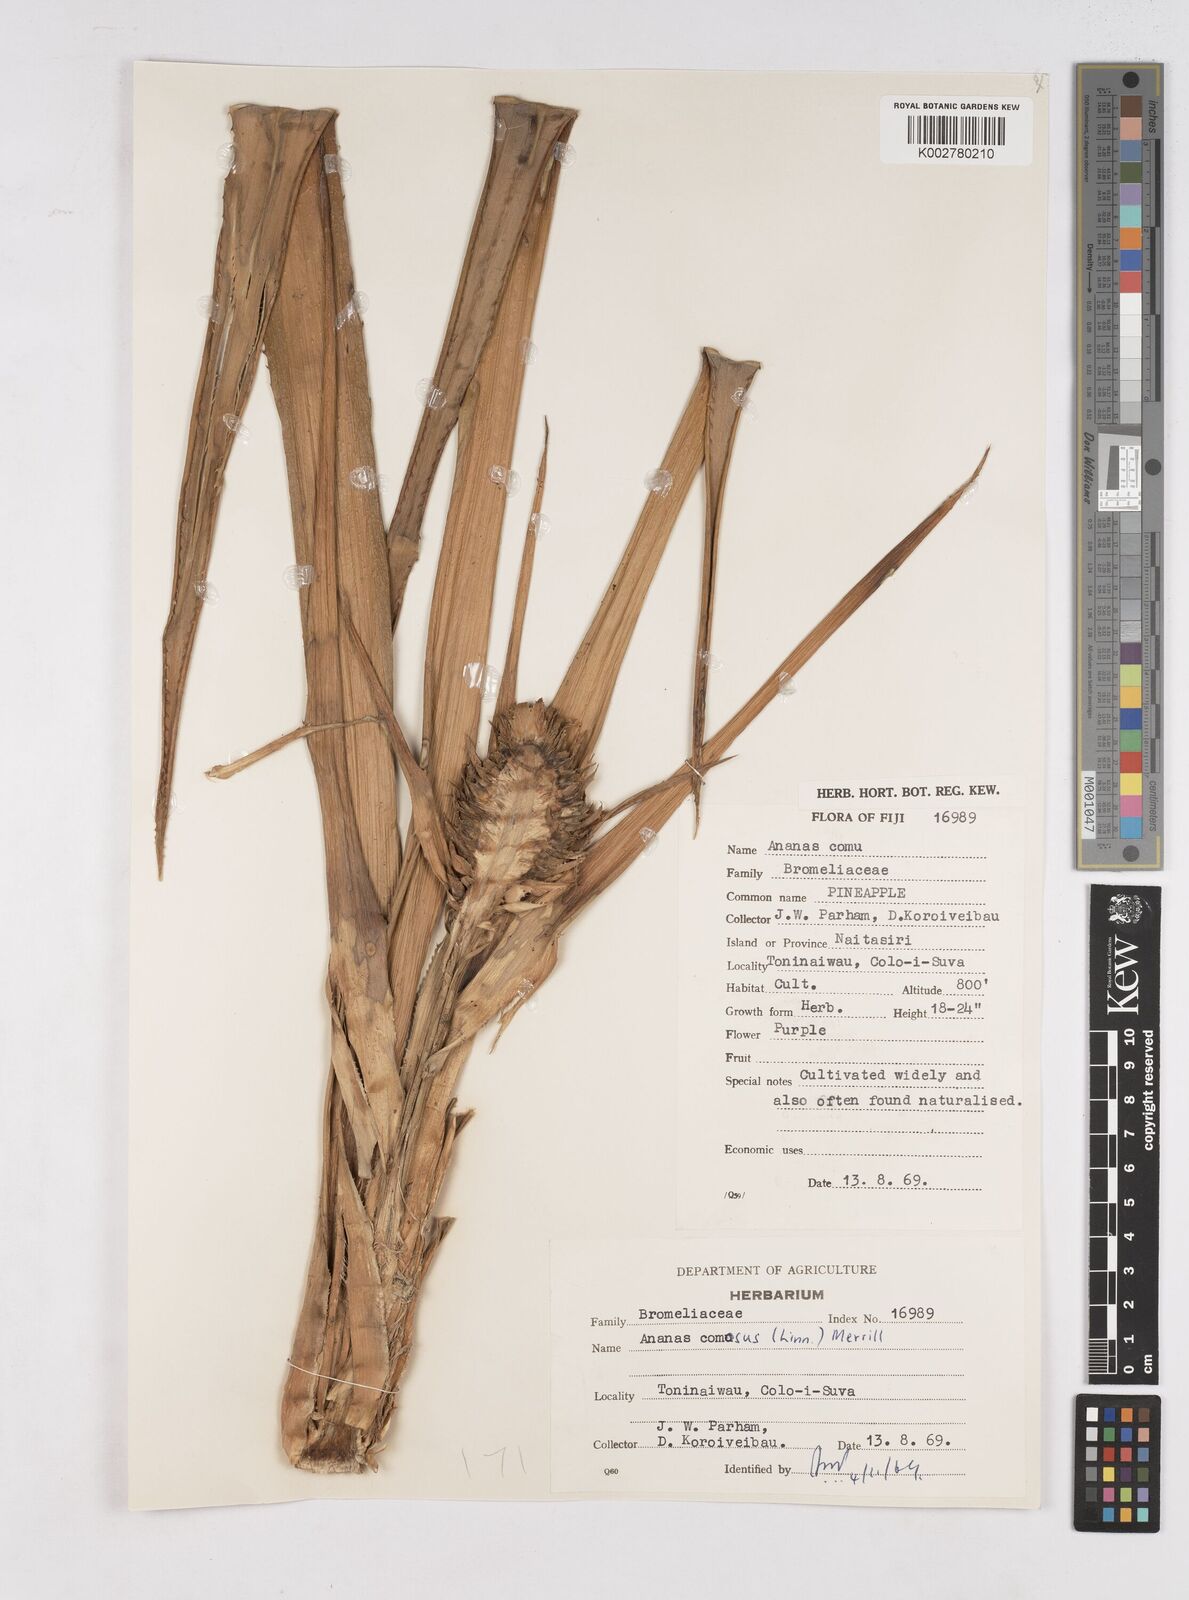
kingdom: Plantae
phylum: Tracheophyta
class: Liliopsida
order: Poales
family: Bromeliaceae
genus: Ananas
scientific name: Ananas comosus
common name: Pineapple
